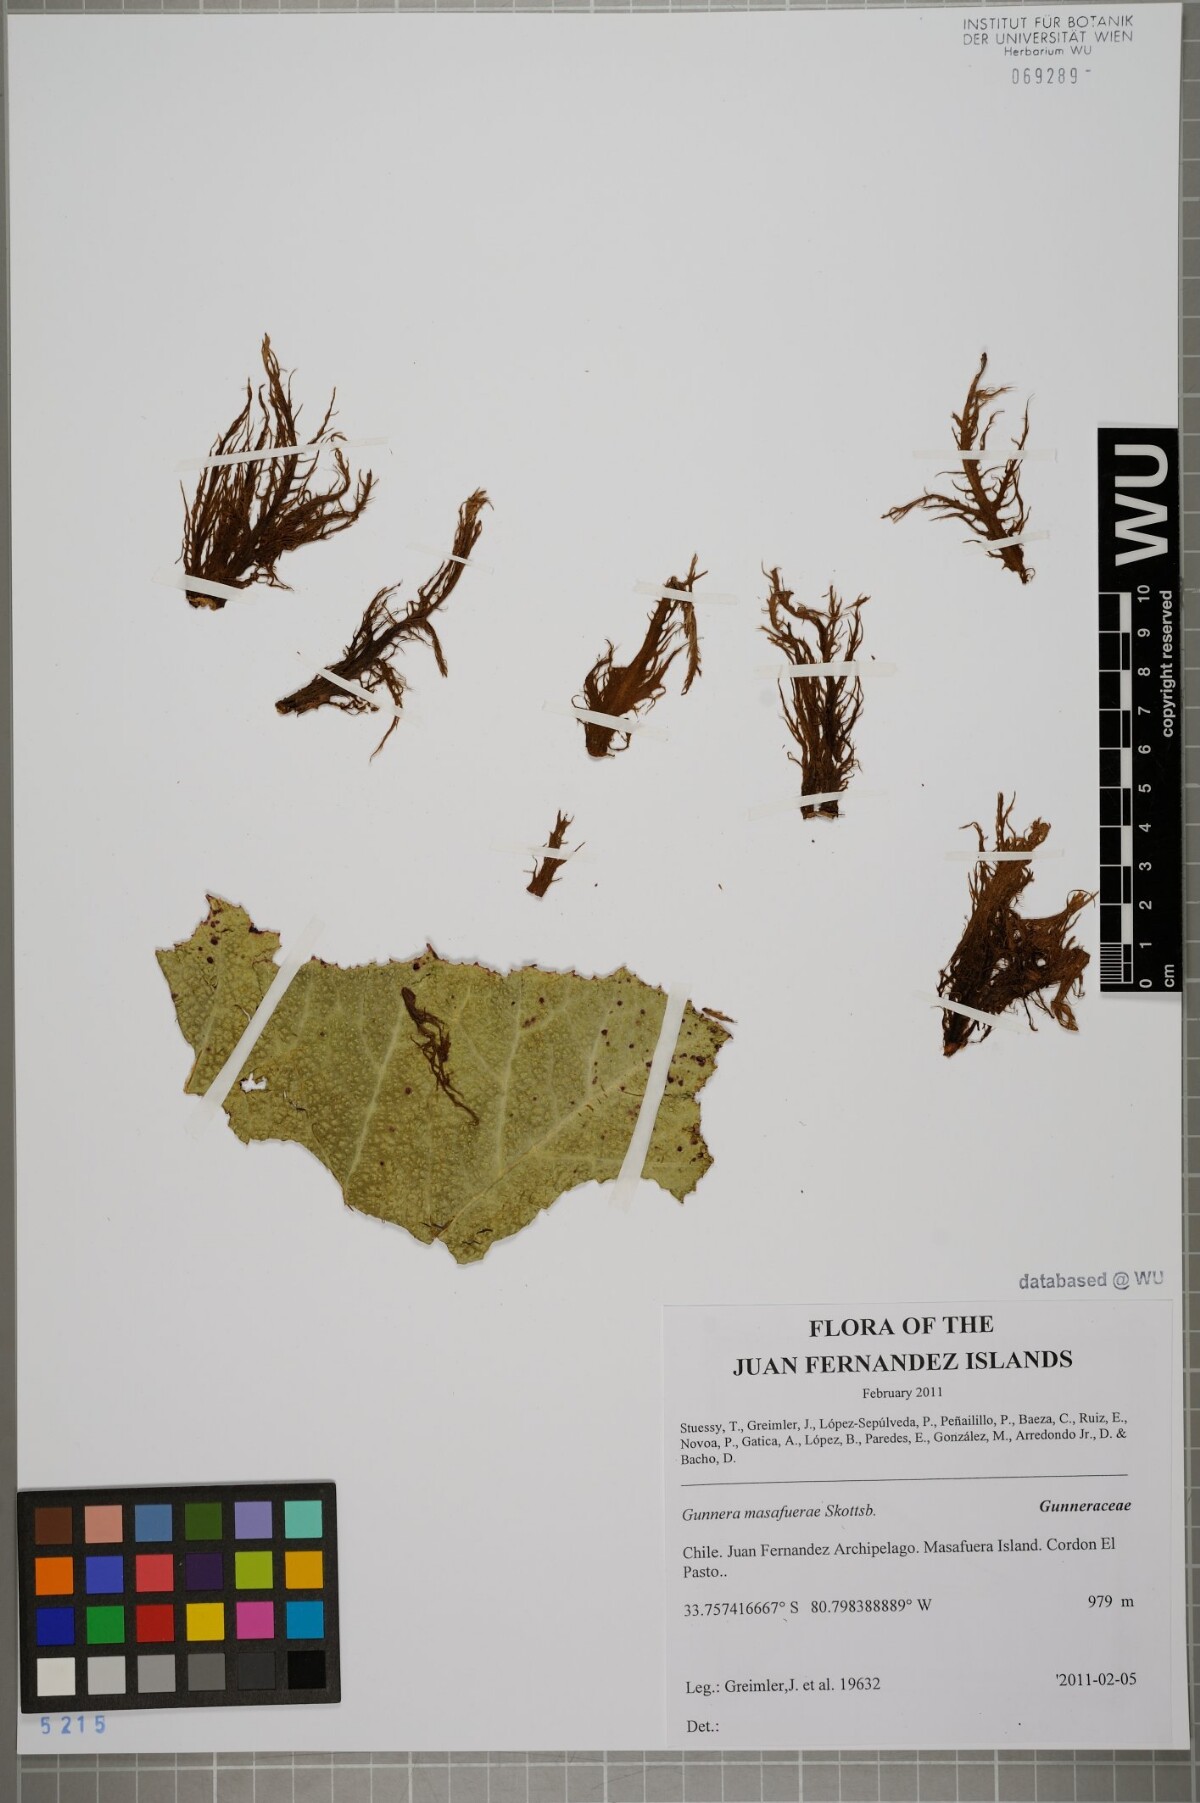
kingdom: Plantae
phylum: Tracheophyta
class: Magnoliopsida
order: Gunnerales
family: Gunneraceae
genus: Gunnera
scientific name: Gunnera masafuerae
